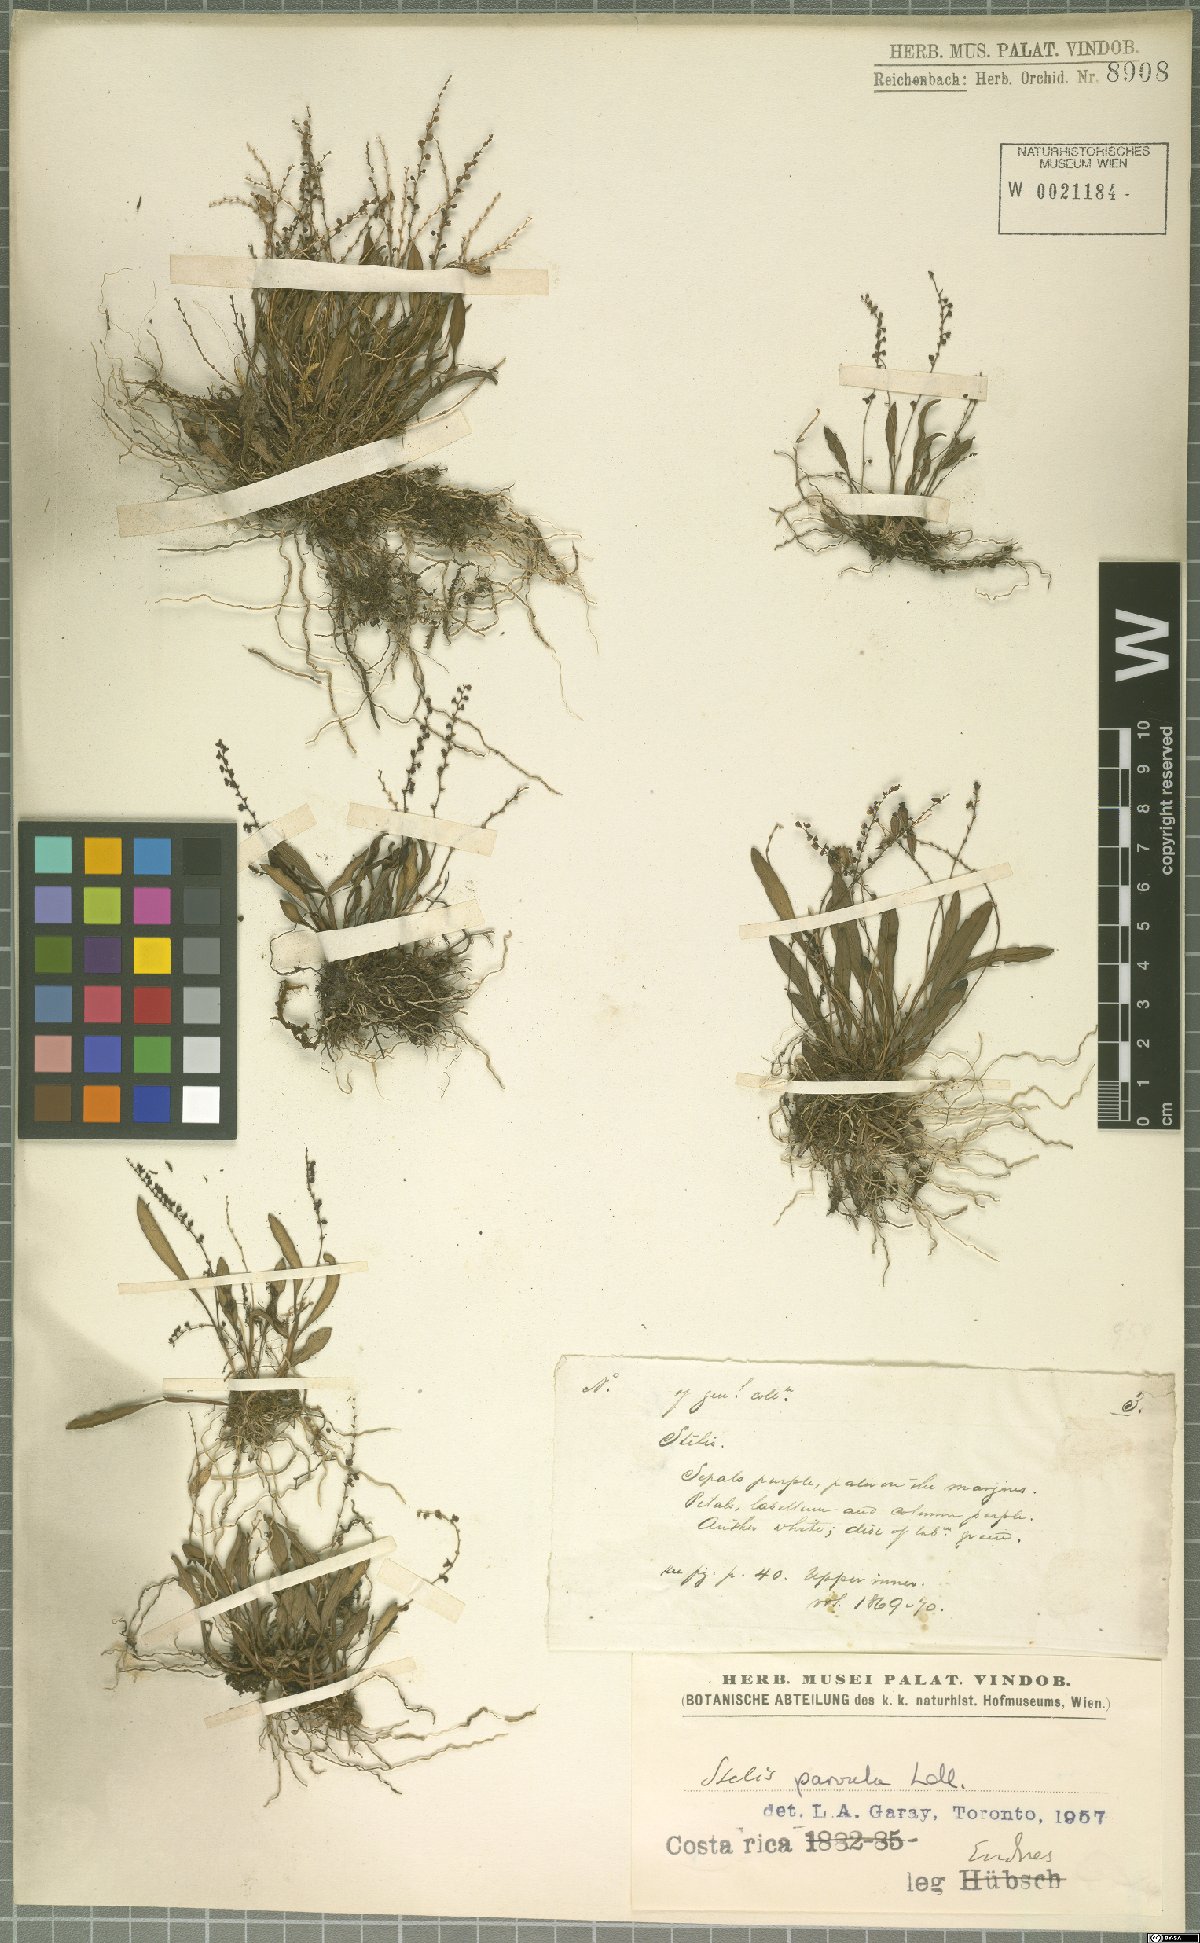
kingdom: Plantae
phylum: Tracheophyta
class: Liliopsida
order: Asparagales
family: Orchidaceae
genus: Stelis
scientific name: Stelis parvula
